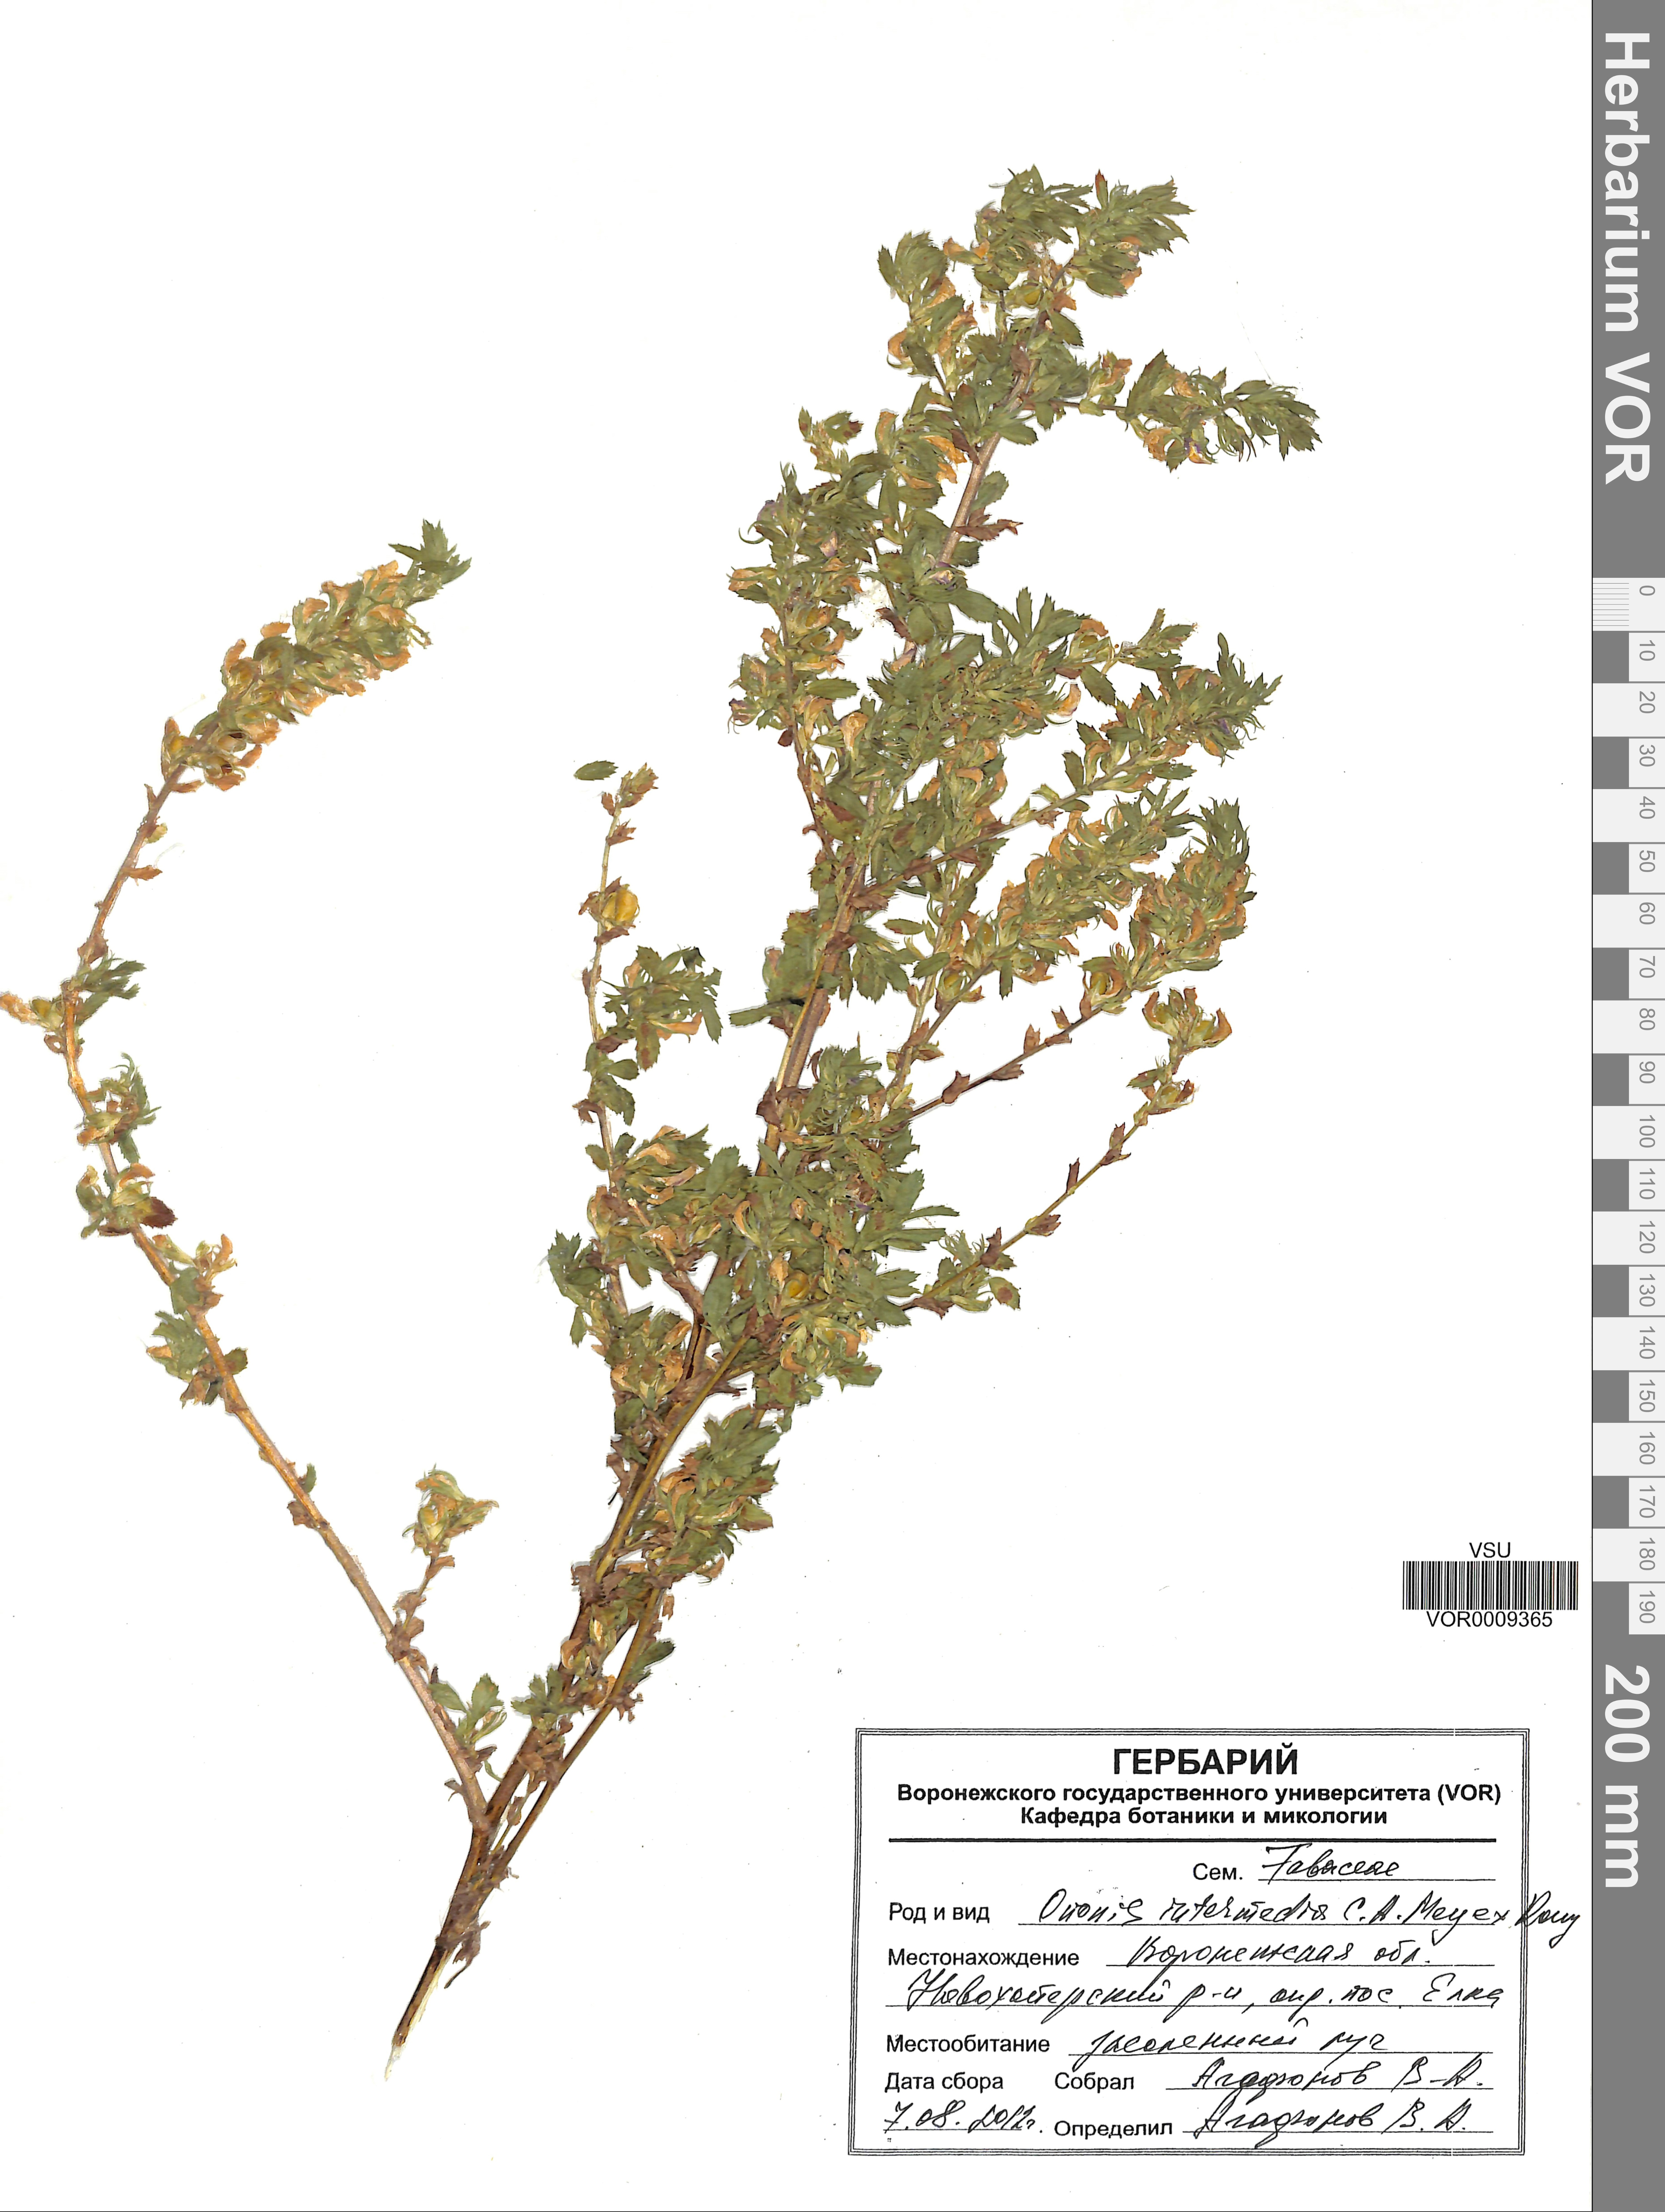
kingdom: Plantae
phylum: Tracheophyta
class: Magnoliopsida
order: Fabales
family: Fabaceae
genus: Ononis
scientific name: Ononis intermedia
